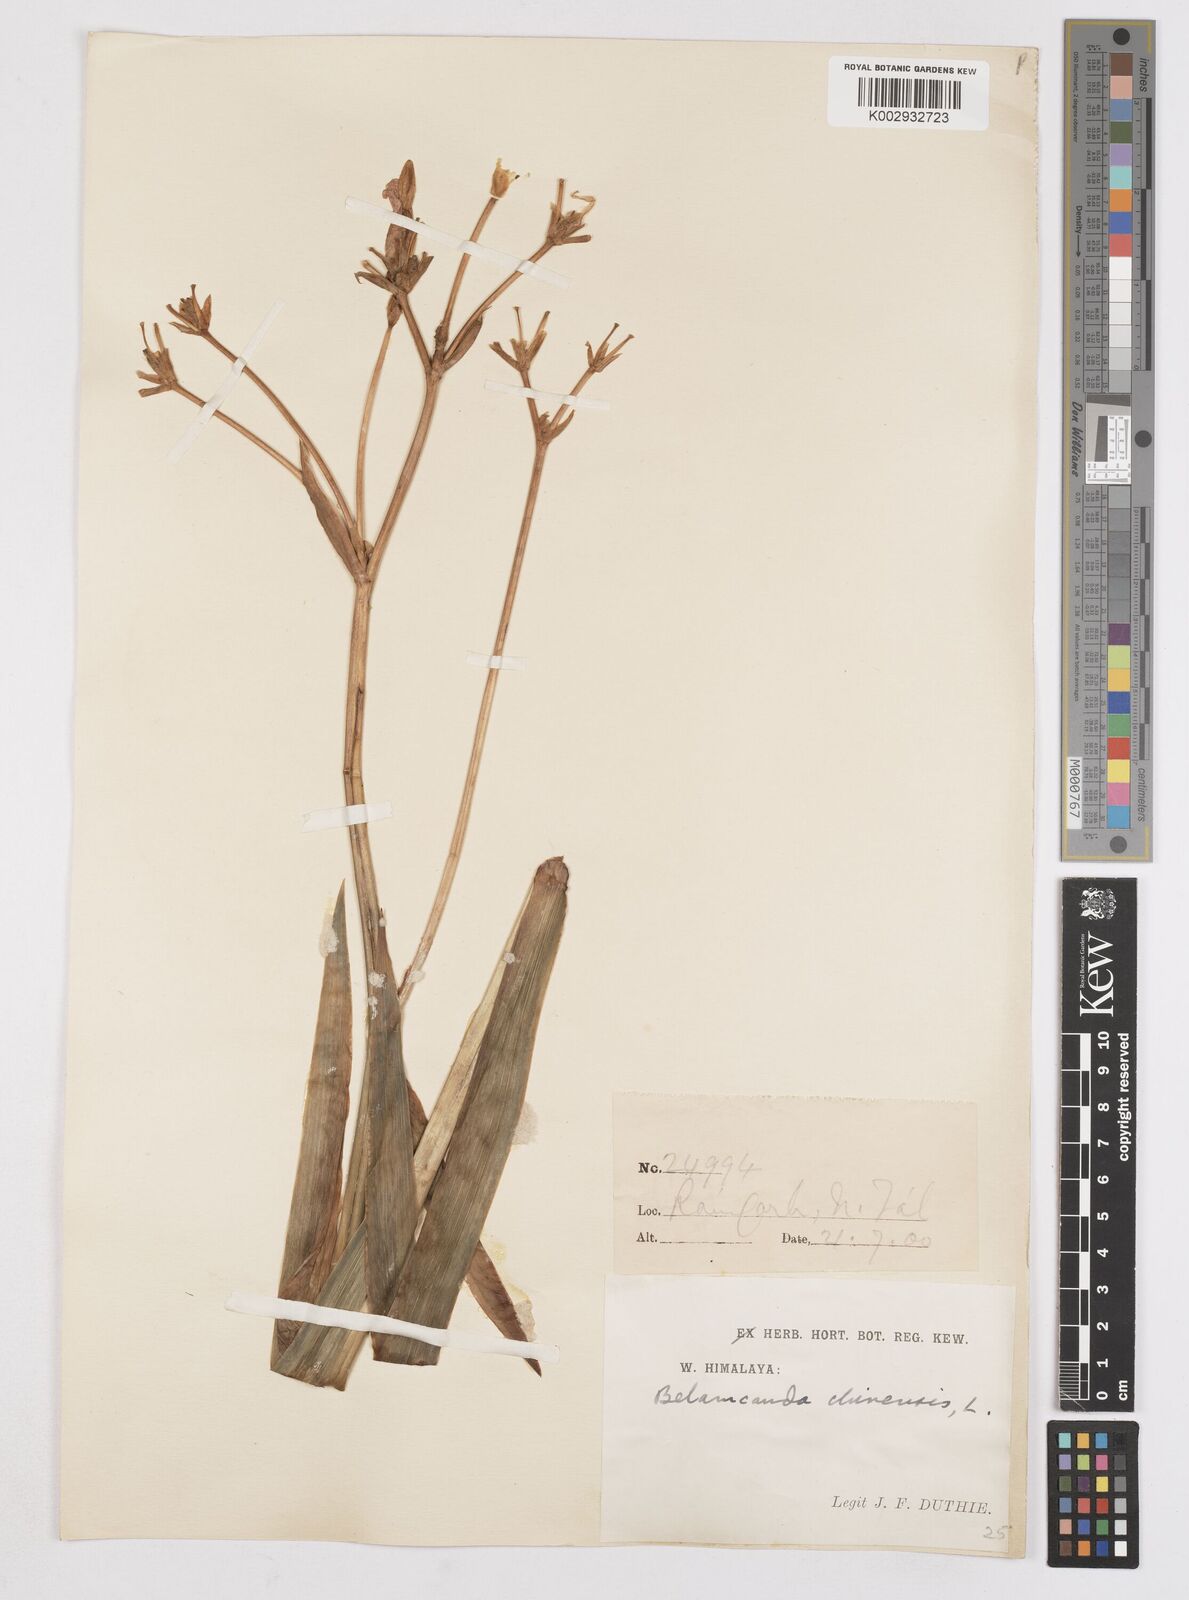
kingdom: Plantae
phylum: Tracheophyta
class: Liliopsida
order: Asparagales
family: Iridaceae
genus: Iris
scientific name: Iris
